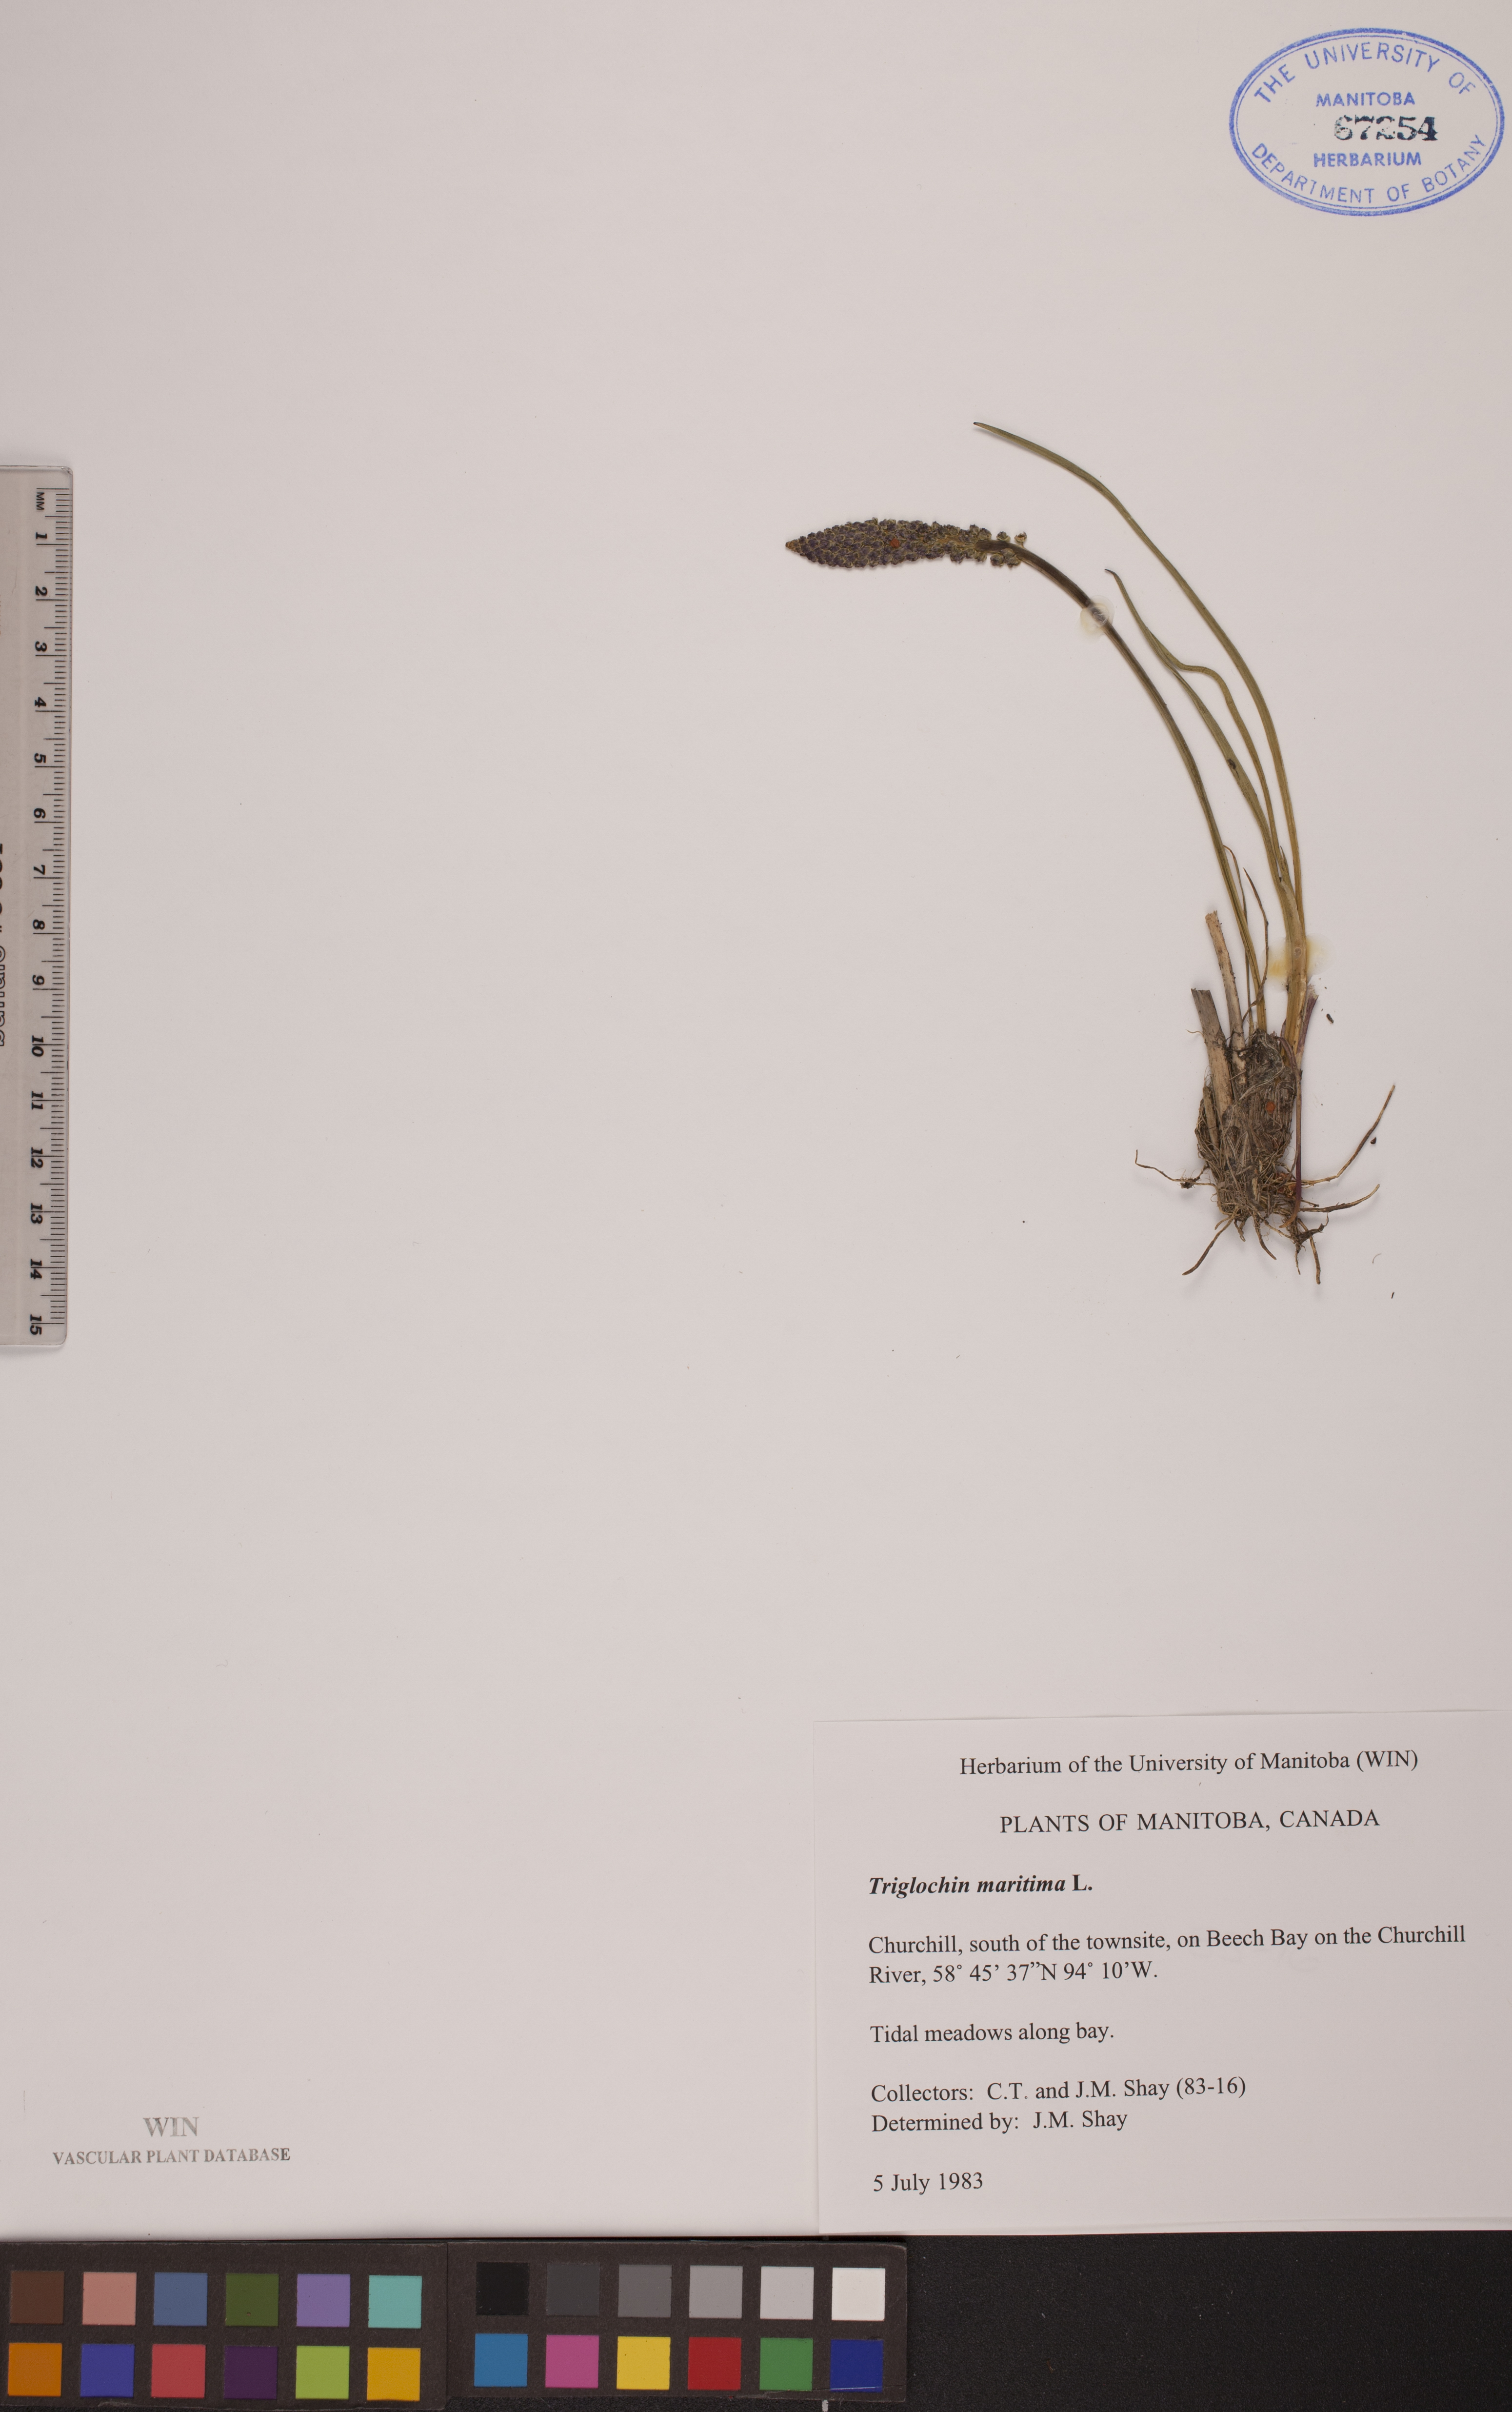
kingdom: Plantae
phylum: Tracheophyta
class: Liliopsida
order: Alismatales
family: Juncaginaceae
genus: Triglochin
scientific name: Triglochin maritima
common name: Sea arrowgrass
